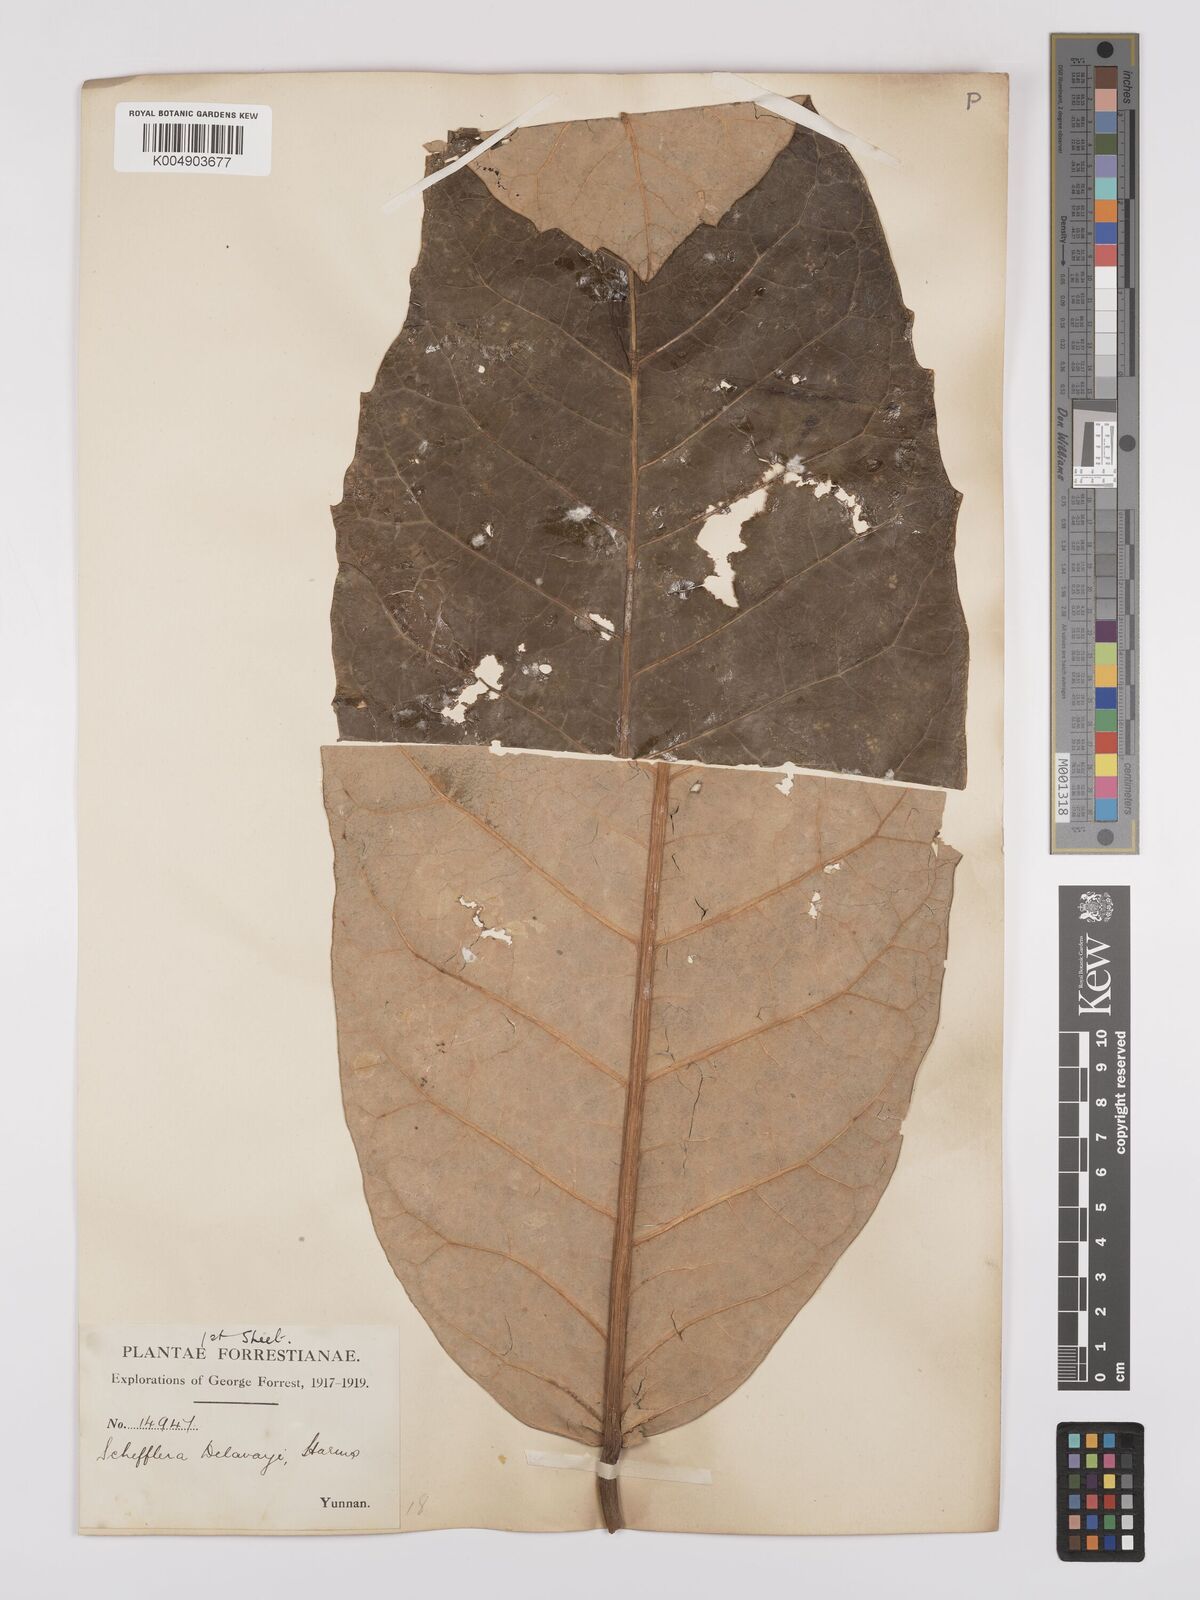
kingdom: Plantae
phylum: Tracheophyta
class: Magnoliopsida
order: Apiales
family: Araliaceae
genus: Heptapleurum
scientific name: Heptapleurum delavayi
